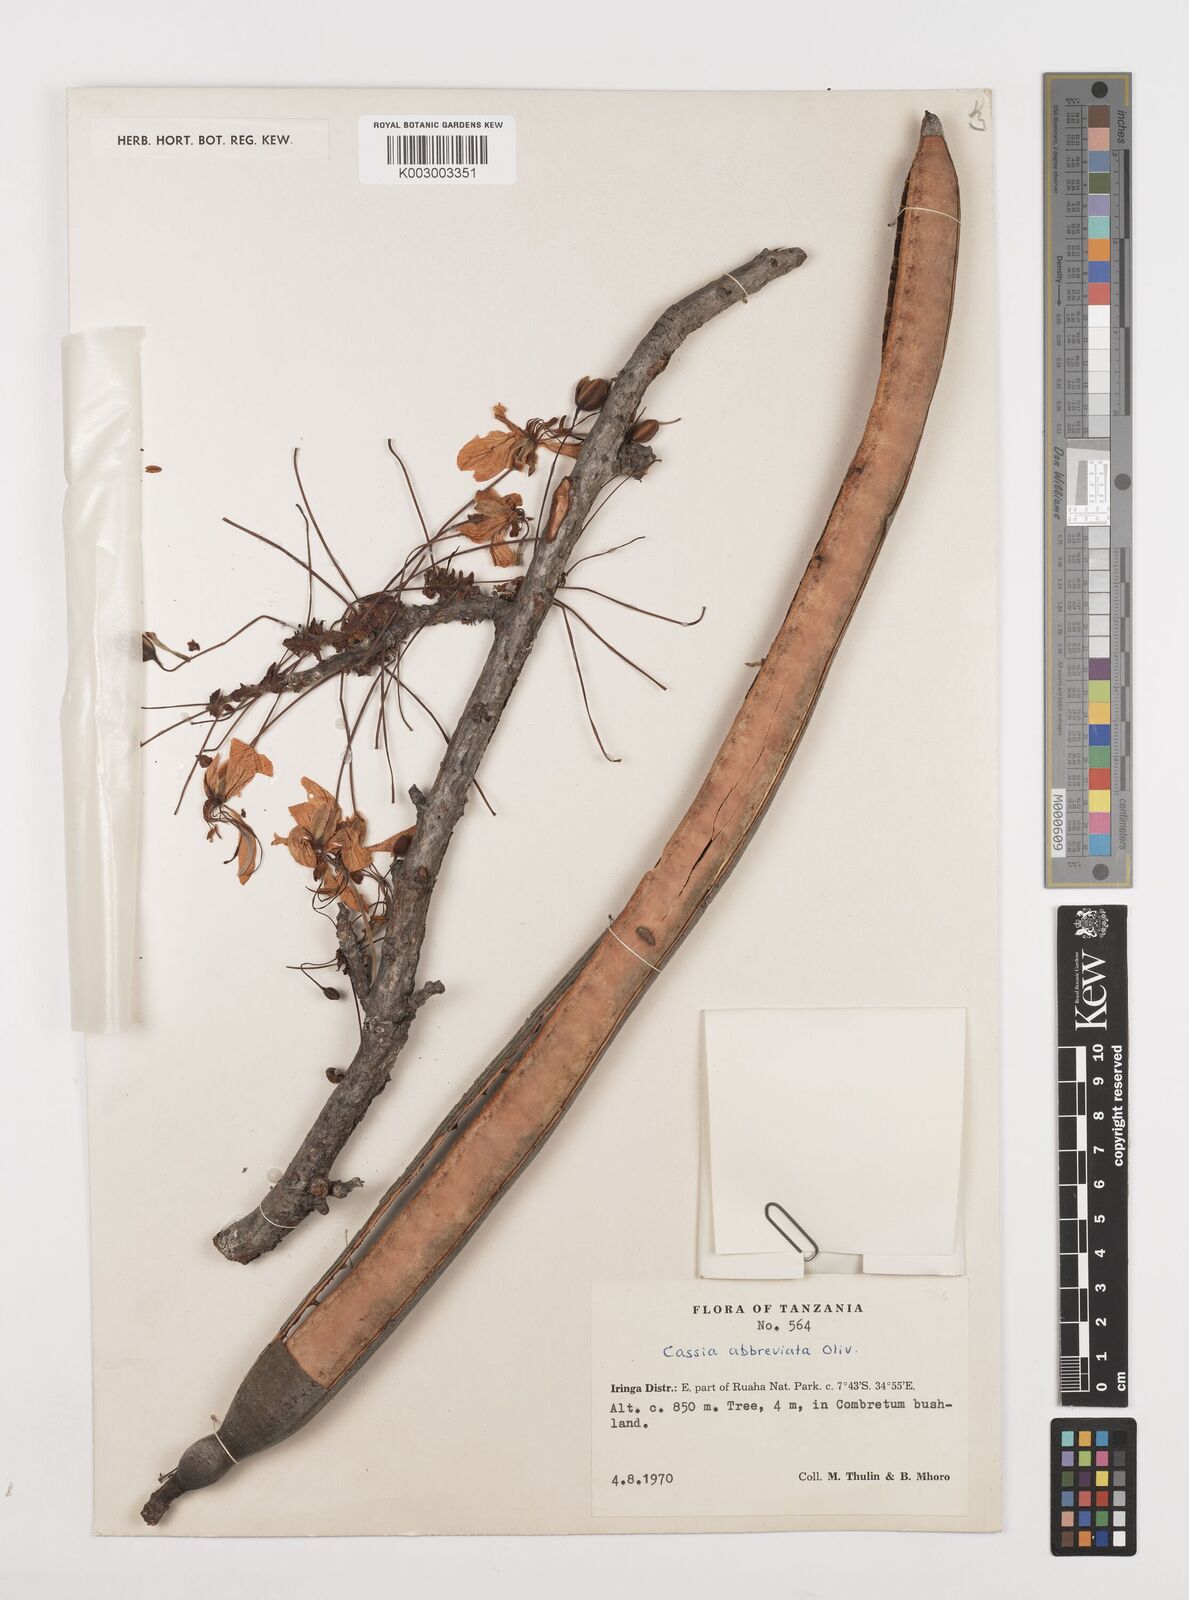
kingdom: Plantae
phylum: Tracheophyta
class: Magnoliopsida
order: Fabales
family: Fabaceae
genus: Cassia
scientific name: Cassia abbreviata
